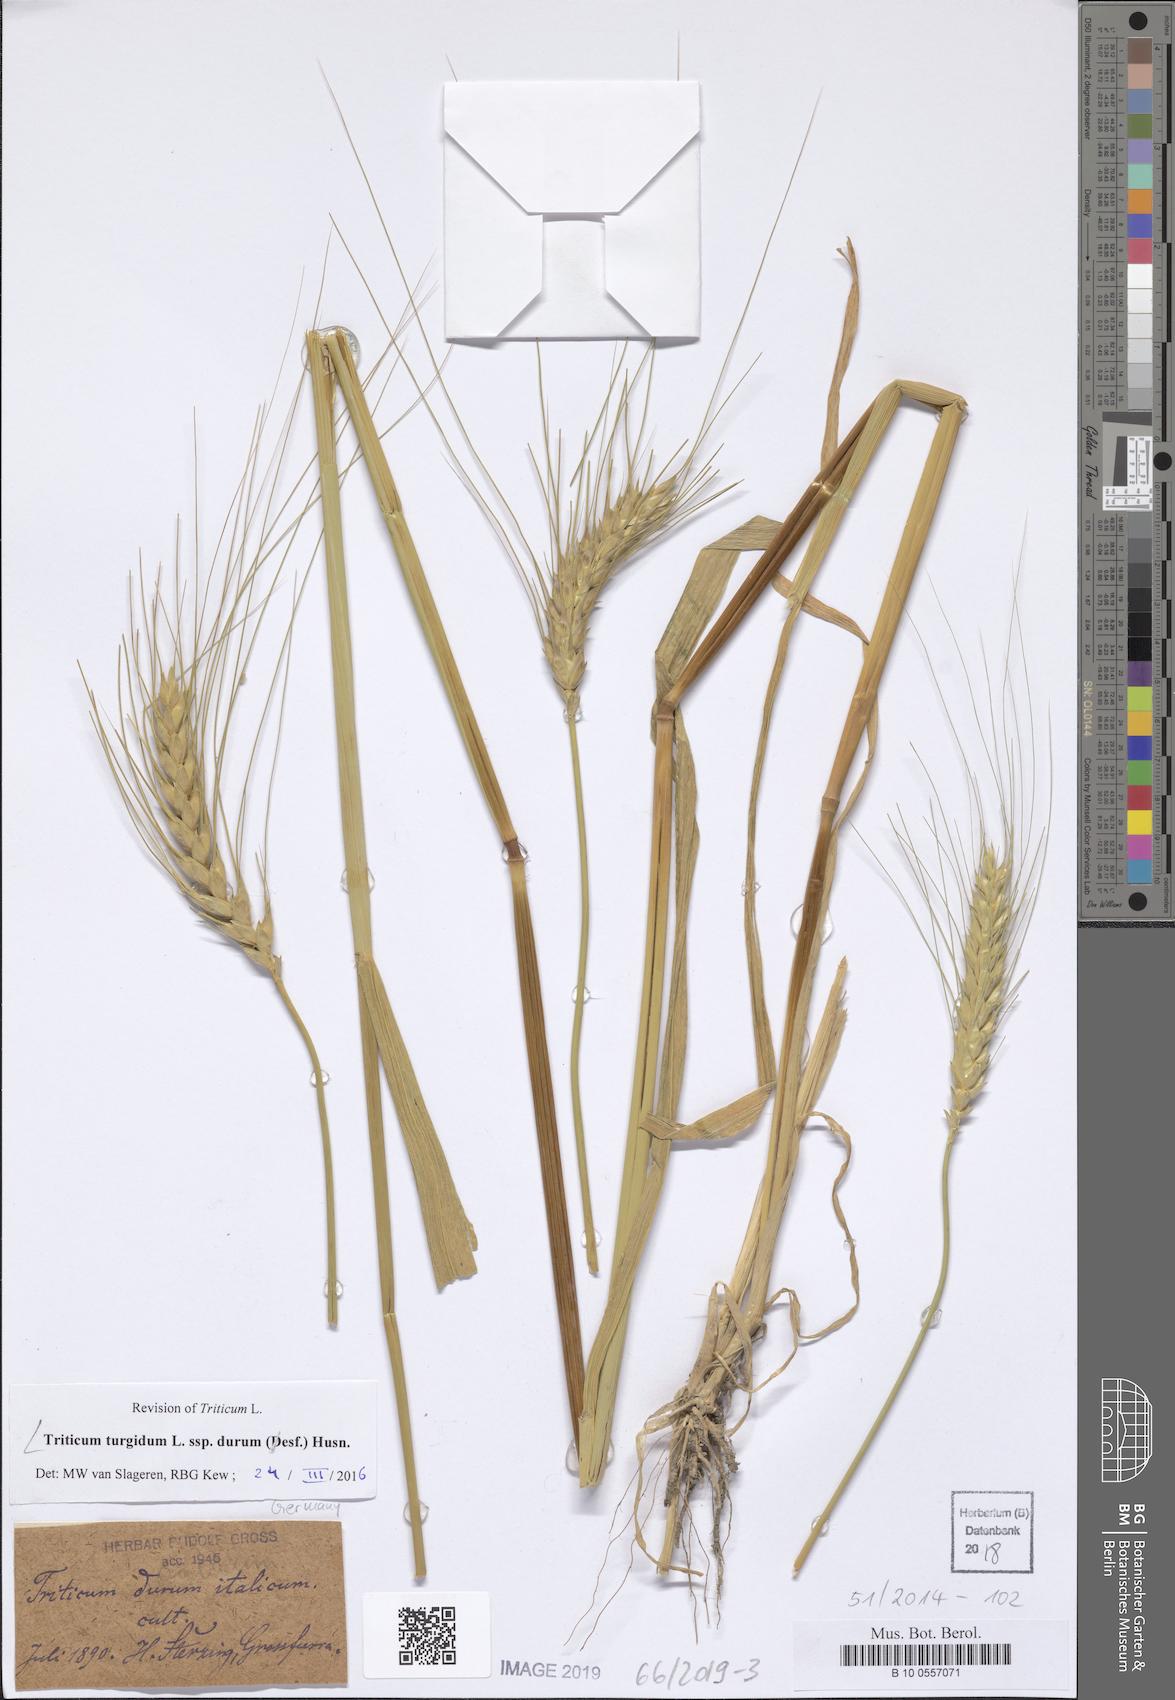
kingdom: Plantae
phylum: Tracheophyta
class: Liliopsida
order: Poales
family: Poaceae
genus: Triticum
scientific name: Triticum turgidum
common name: Rivet wheat
